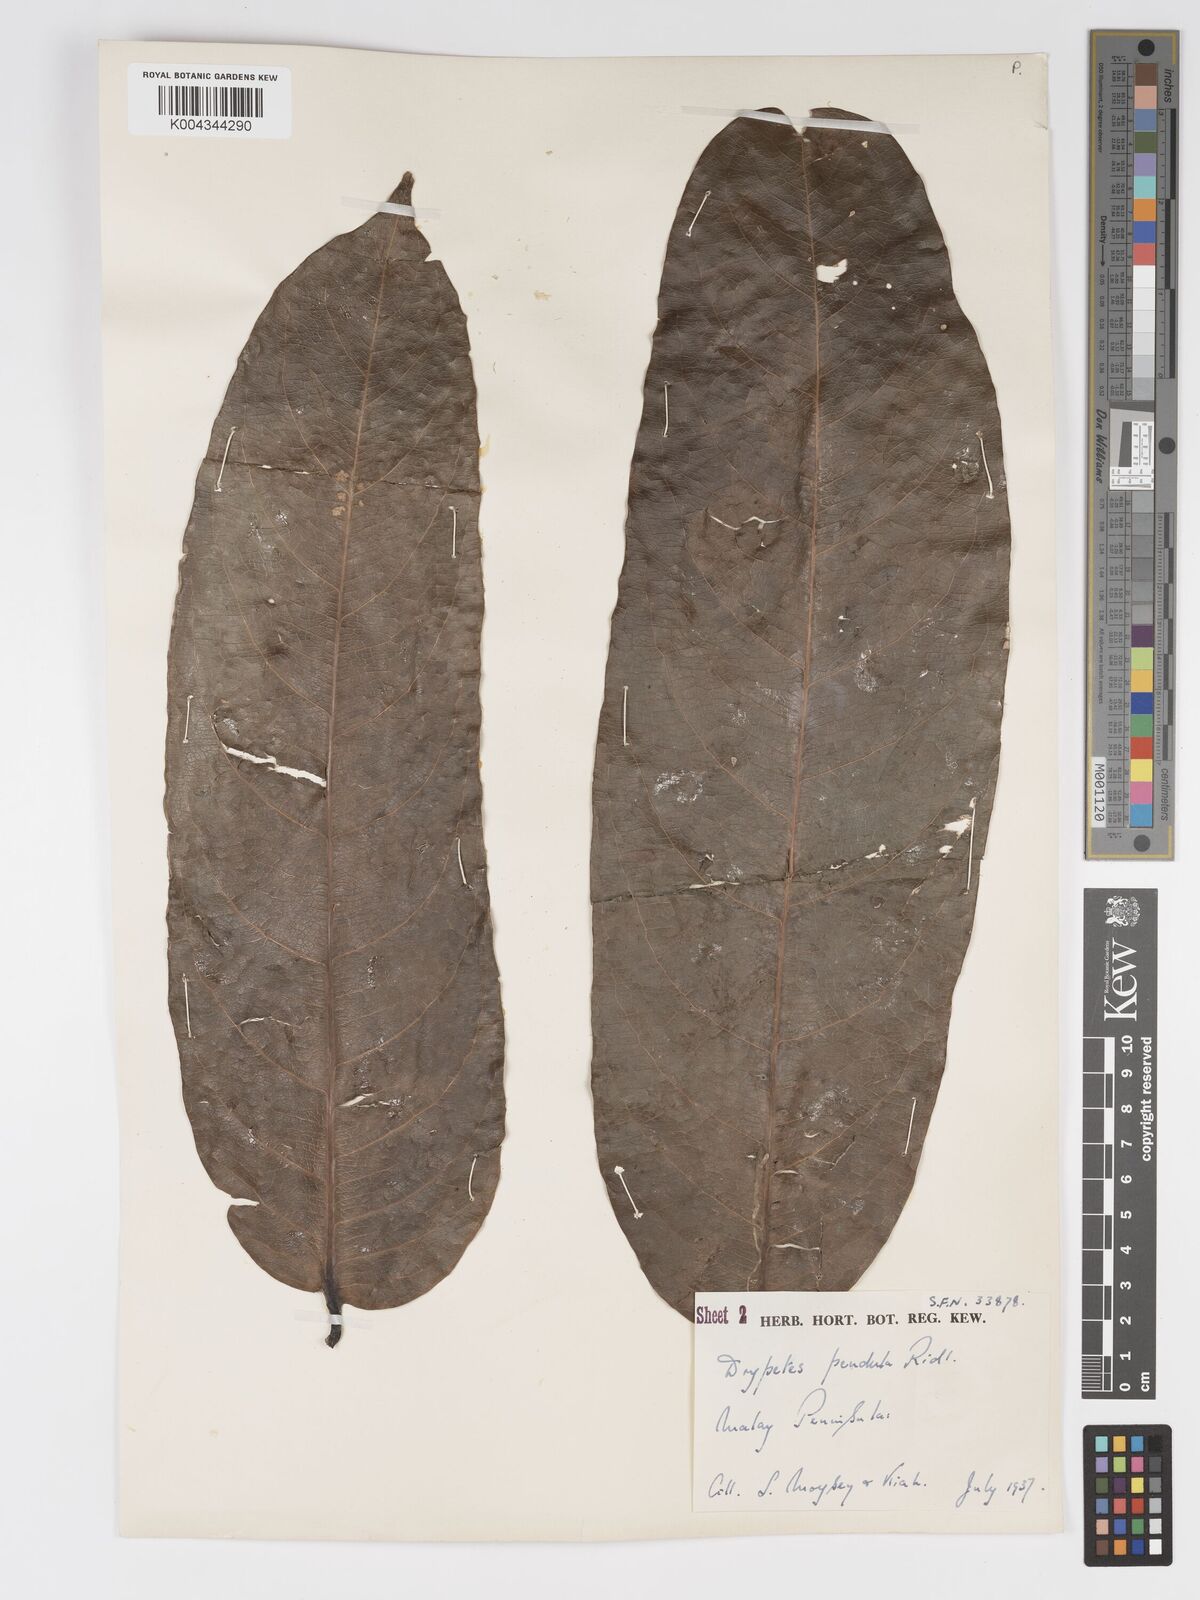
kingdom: Plantae
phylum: Tracheophyta
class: Magnoliopsida
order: Malpighiales
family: Putranjivaceae
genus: Drypetes
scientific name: Drypetes pendula
